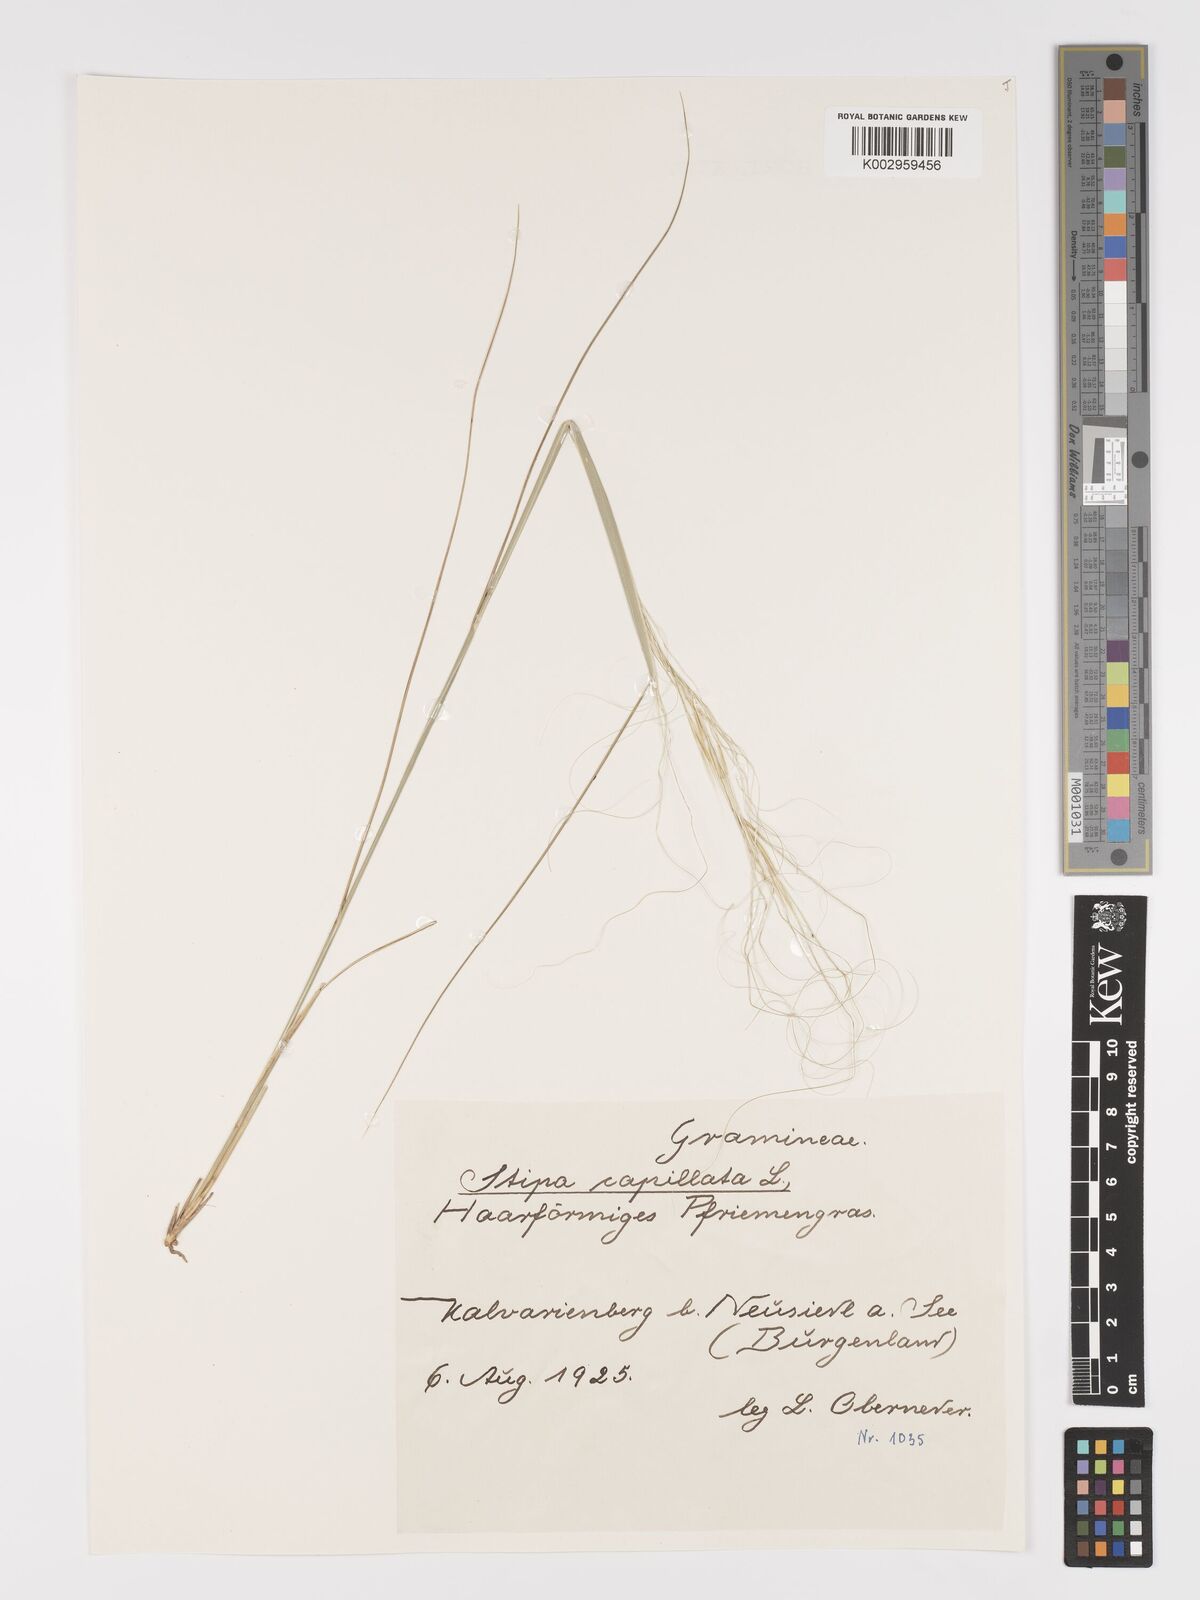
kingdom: Plantae
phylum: Tracheophyta
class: Liliopsida
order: Poales
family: Poaceae
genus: Stipa
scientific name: Stipa capillata
